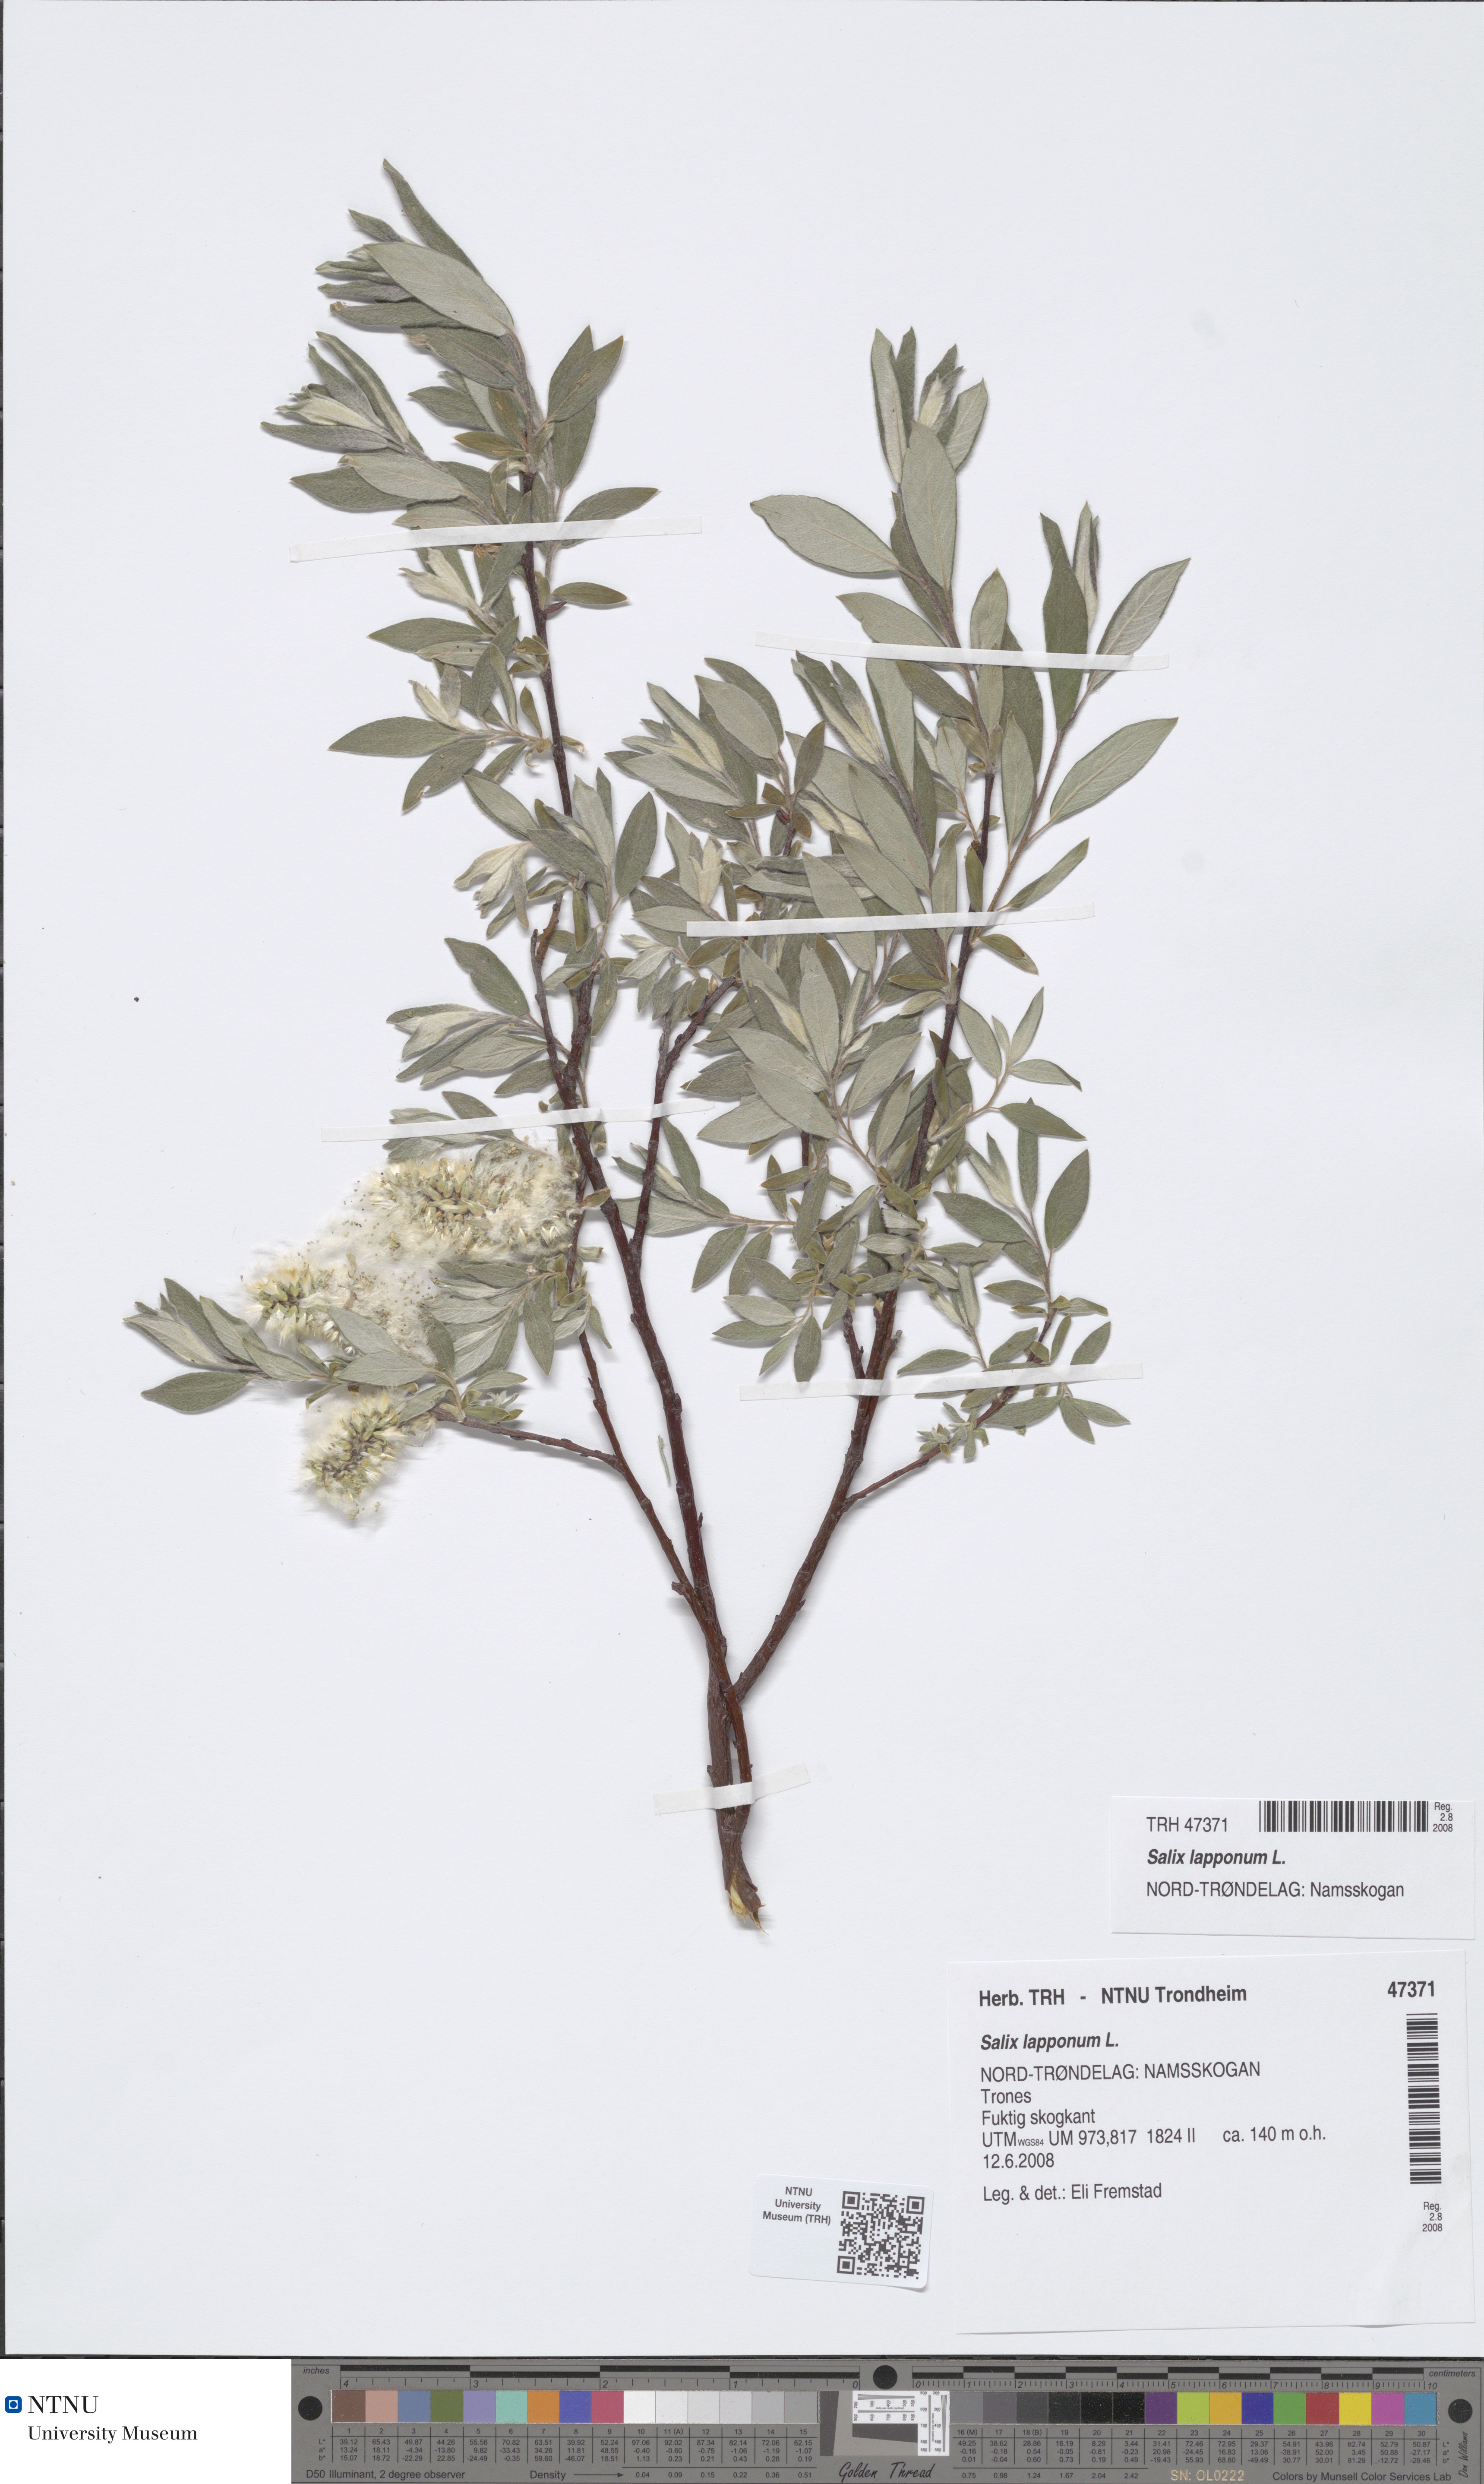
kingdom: Plantae
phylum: Tracheophyta
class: Magnoliopsida
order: Malpighiales
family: Salicaceae
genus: Salix
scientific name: Salix lapponum
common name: Downy willow
